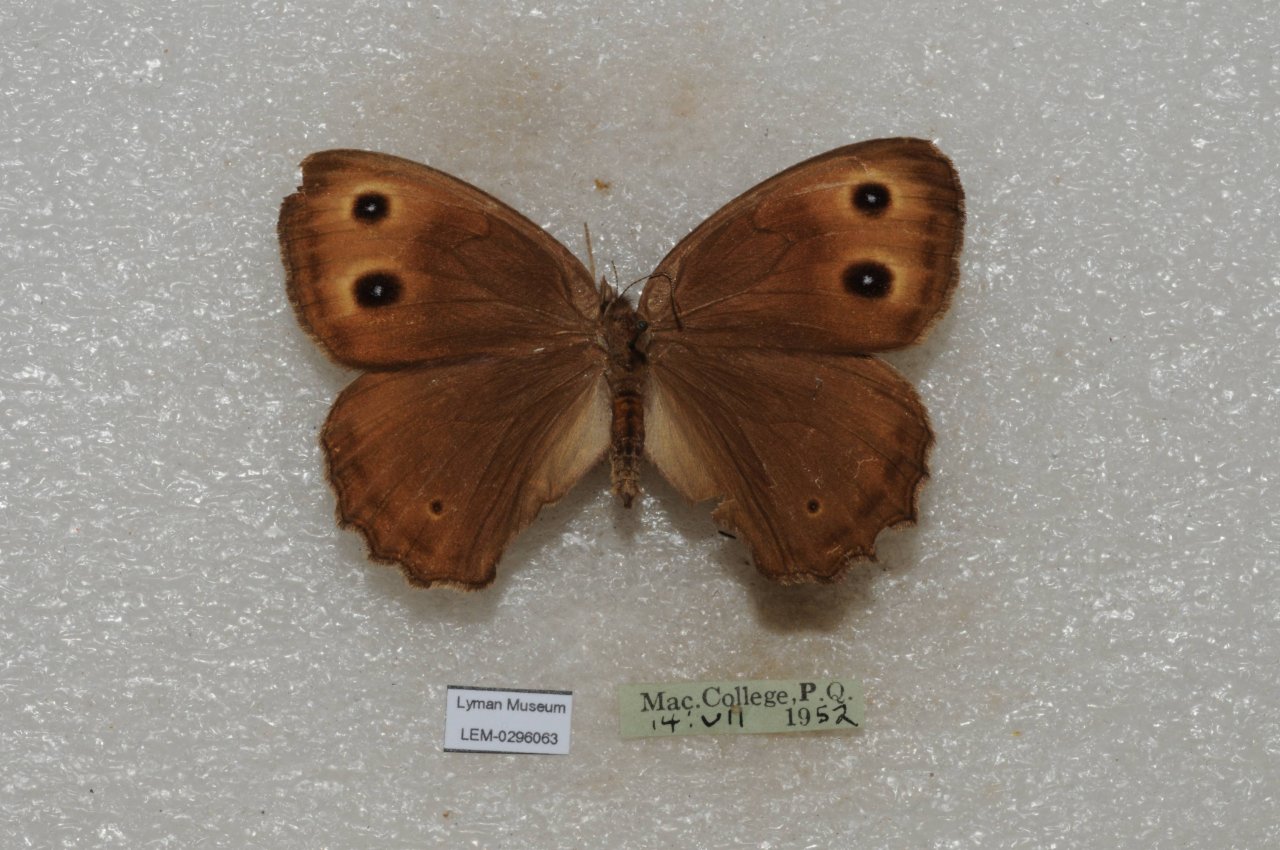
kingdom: Animalia
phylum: Arthropoda
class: Insecta
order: Lepidoptera
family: Nymphalidae
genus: Cercyonis
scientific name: Cercyonis pegala
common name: Common Wood-Nymph
